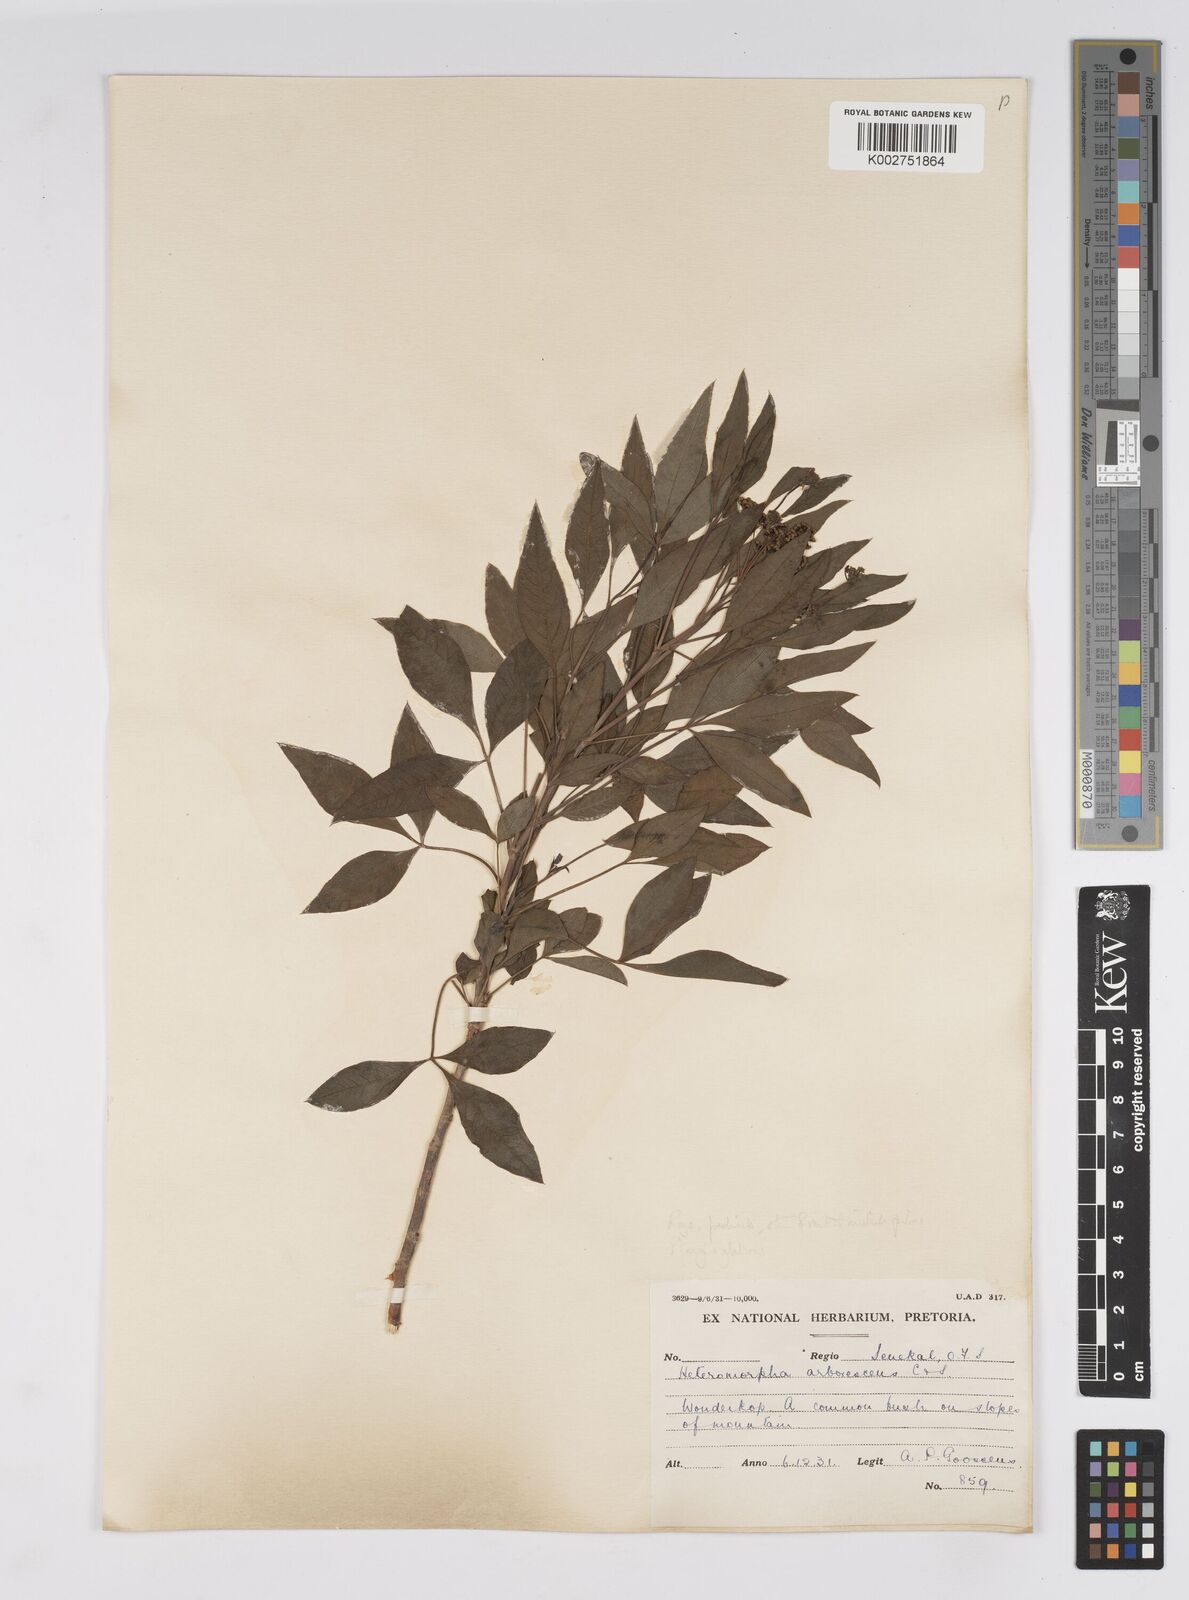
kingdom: Plantae
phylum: Tracheophyta
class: Magnoliopsida
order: Apiales
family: Apiaceae
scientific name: Apiaceae
